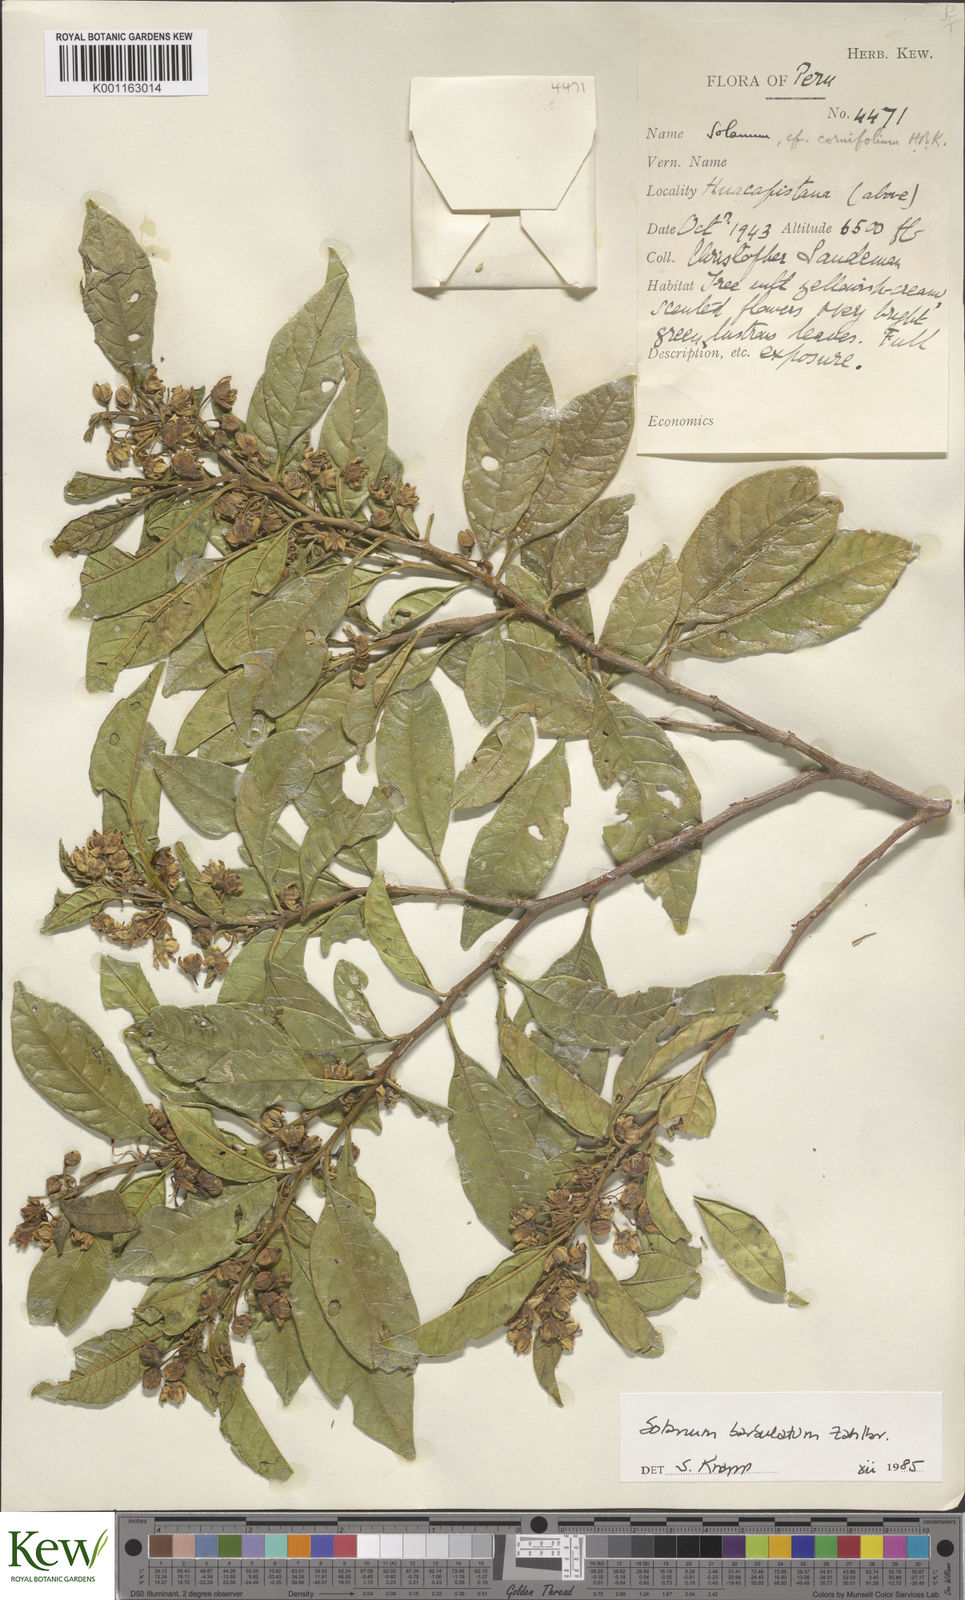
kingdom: Plantae
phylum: Tracheophyta
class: Magnoliopsida
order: Solanales
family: Solanaceae
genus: Solanum
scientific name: Solanum barbulatum
